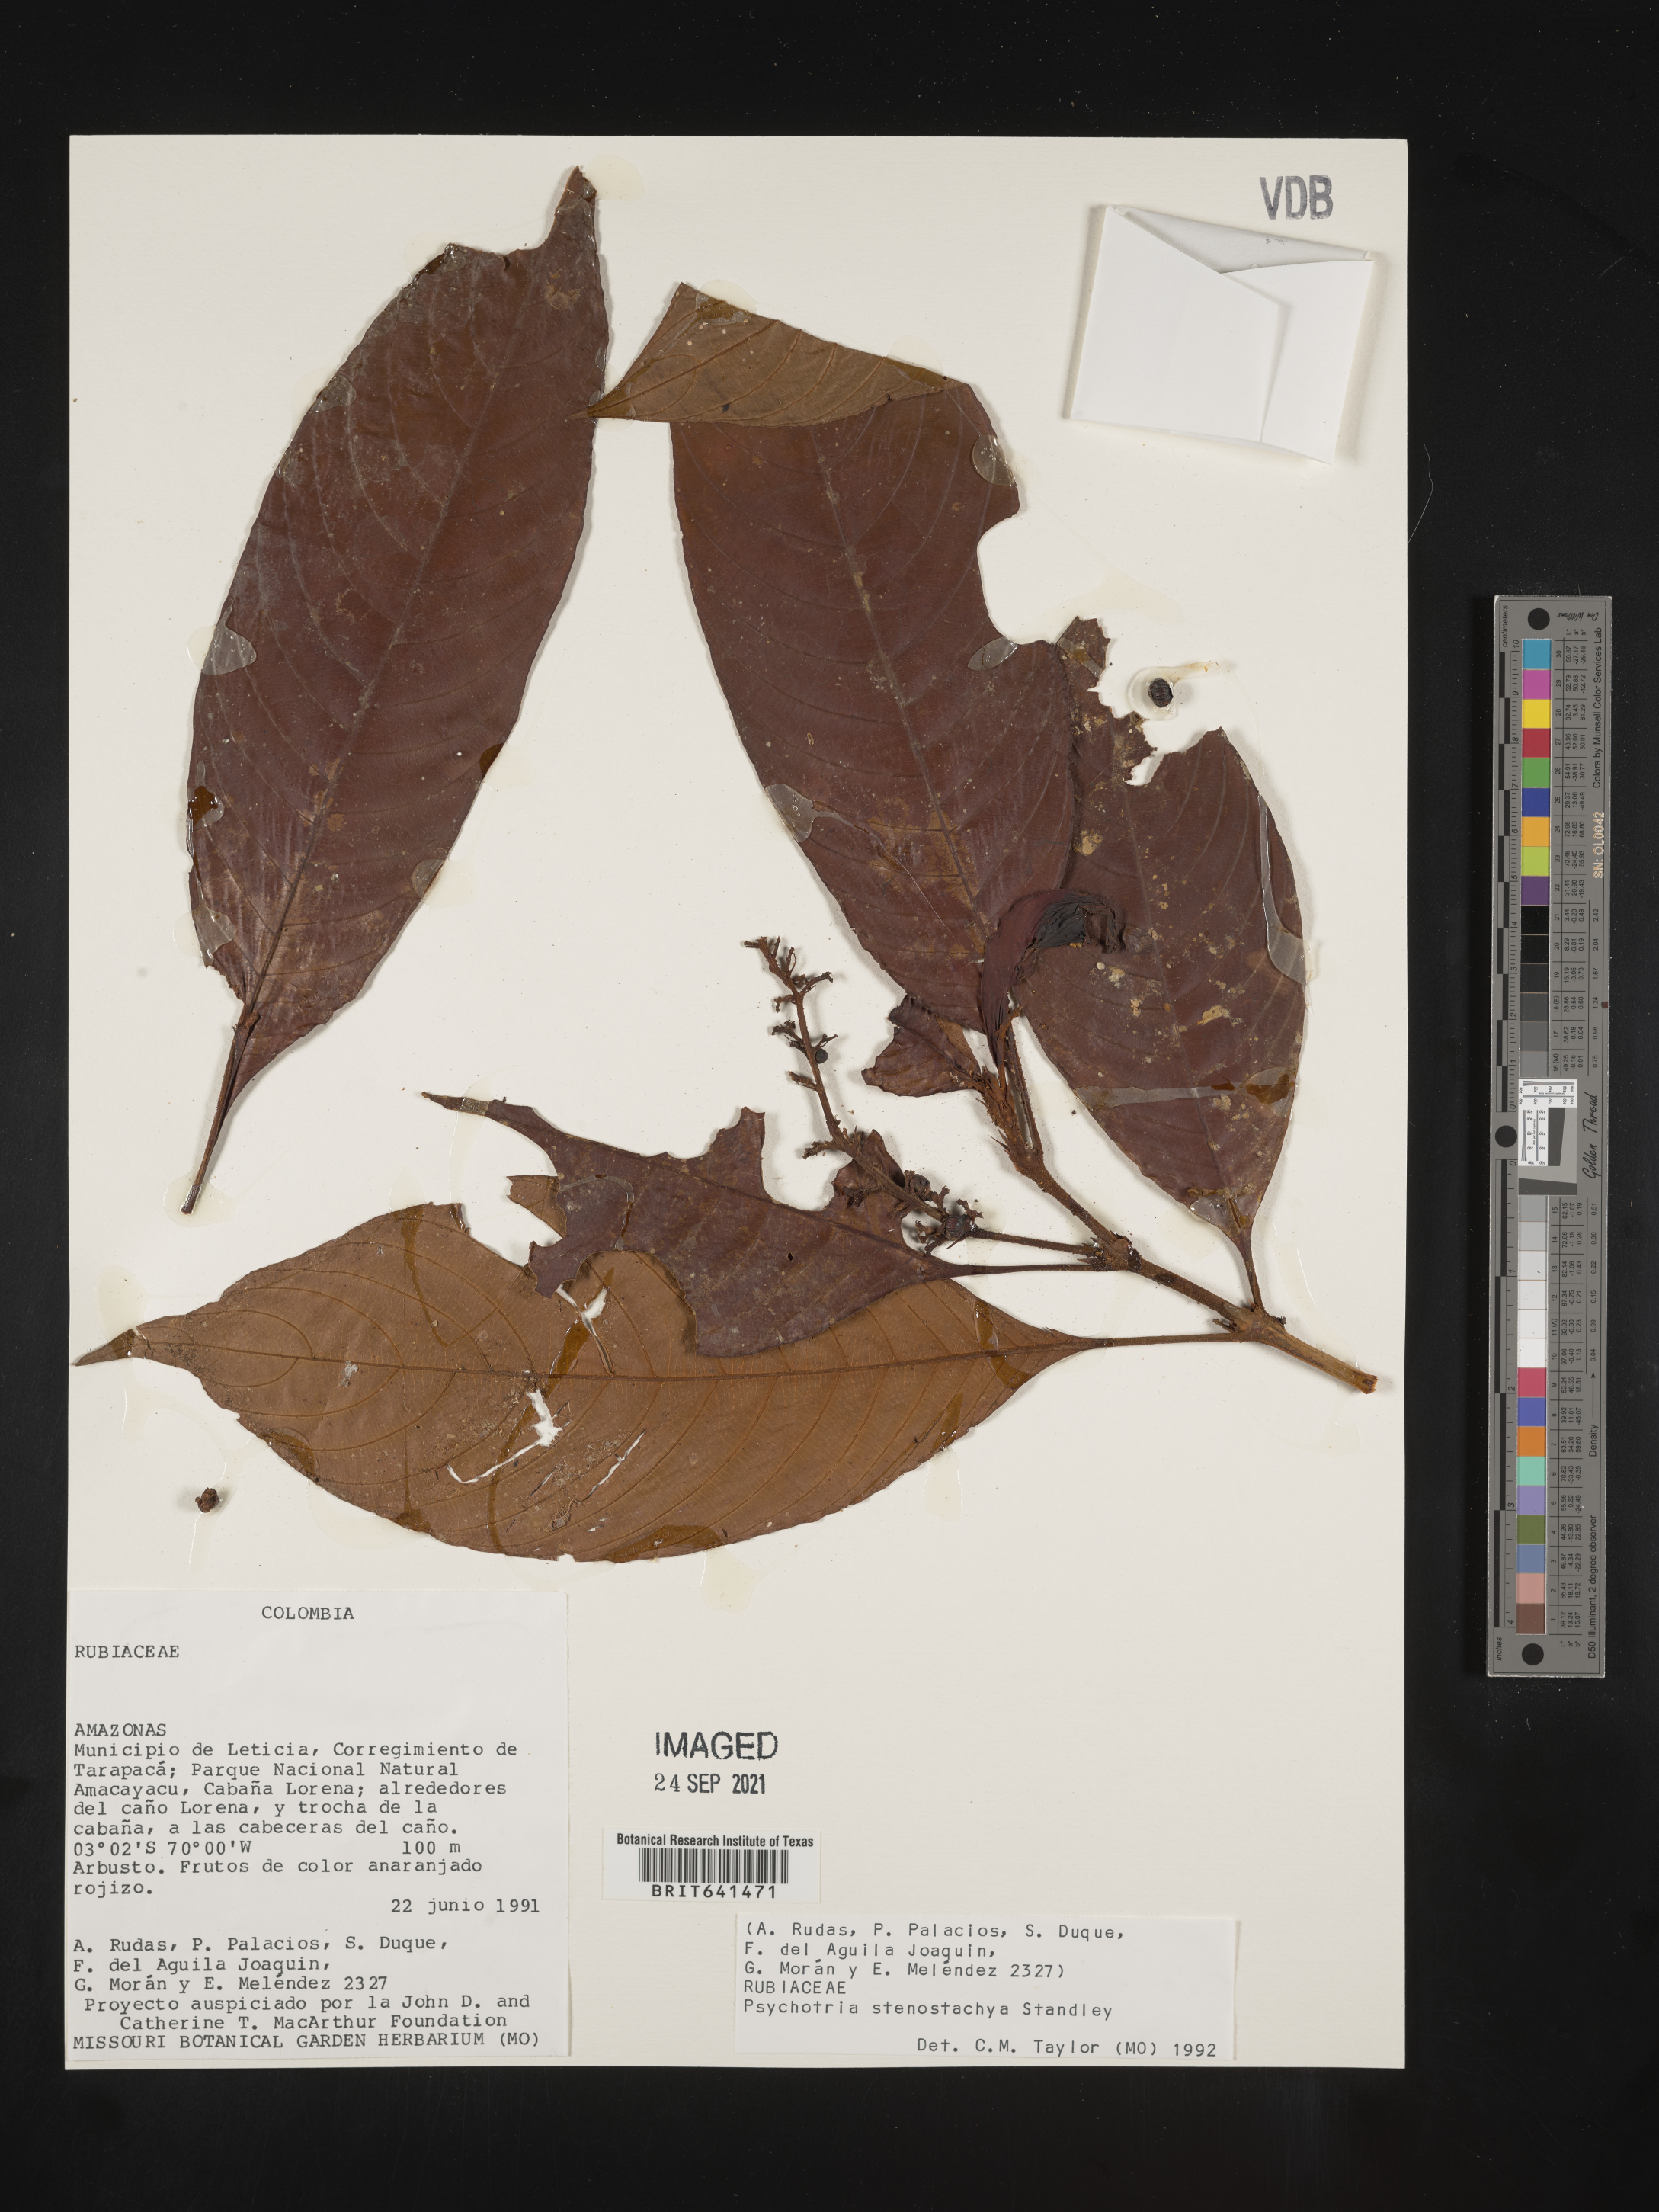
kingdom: Plantae
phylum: Tracheophyta
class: Magnoliopsida
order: Gentianales
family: Rubiaceae
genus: Psychotria
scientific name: Psychotria
